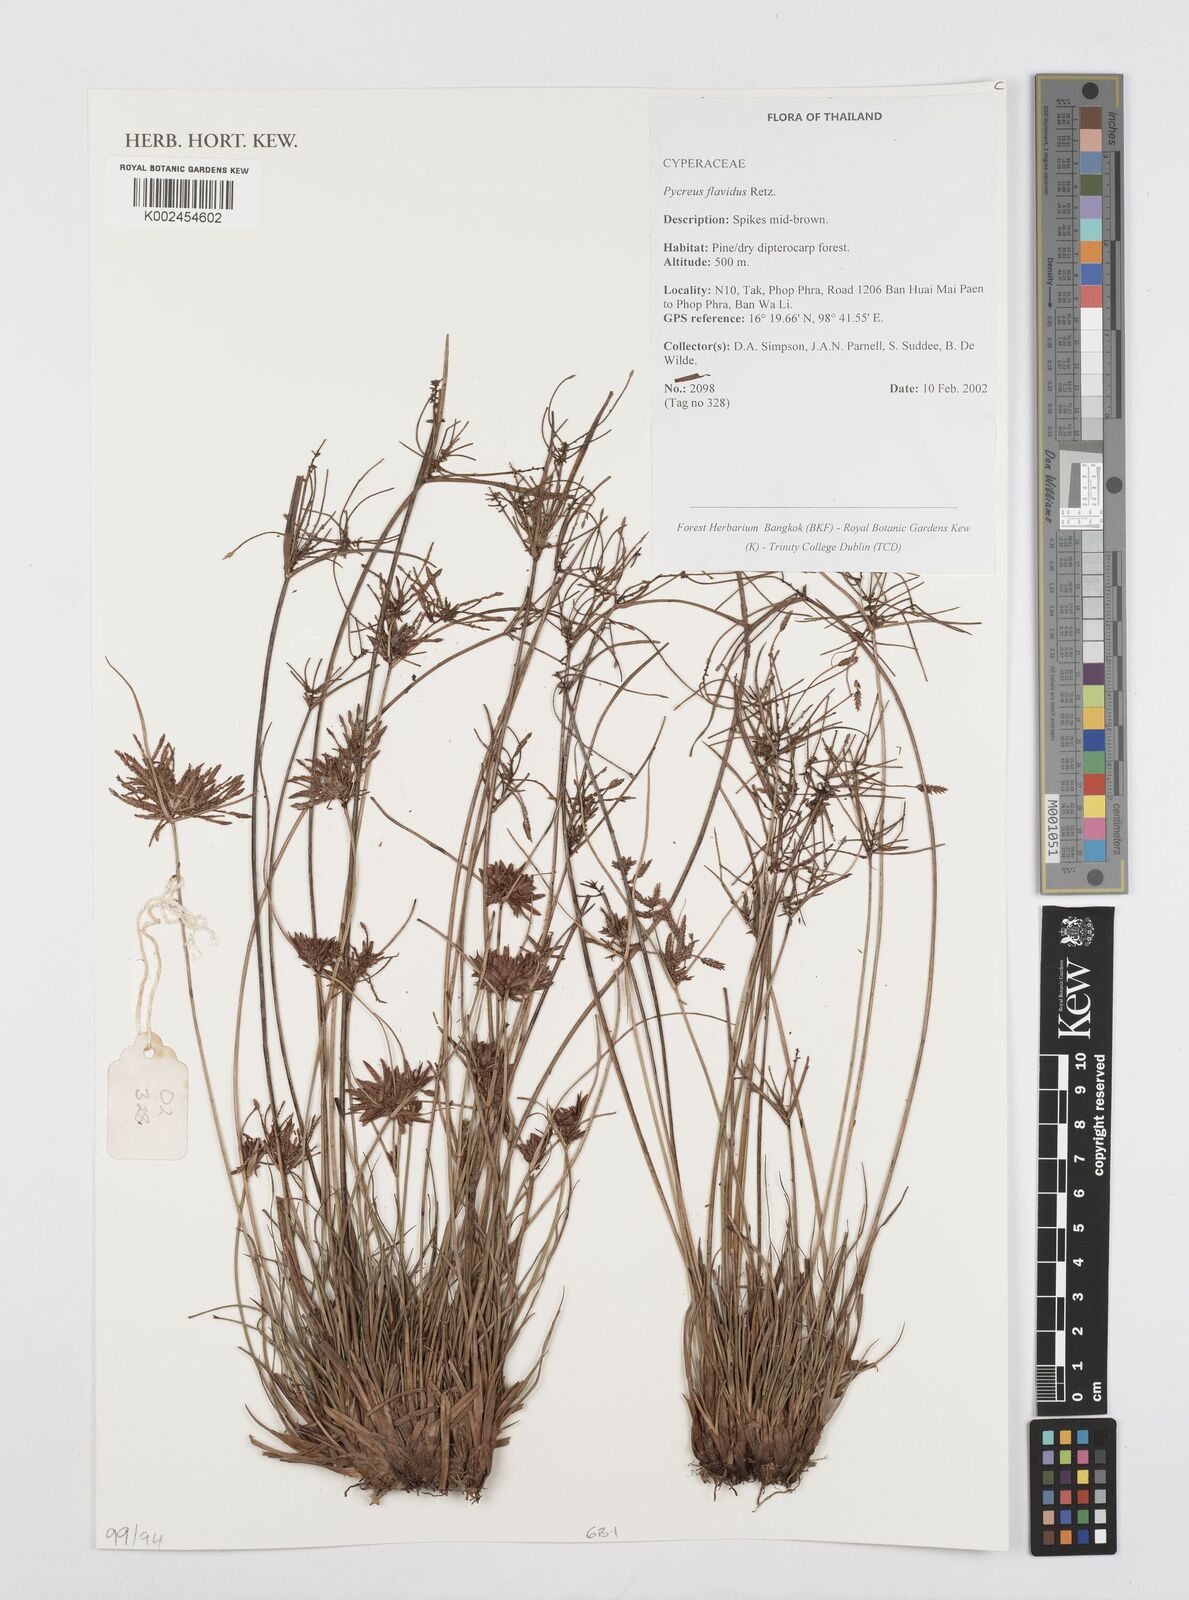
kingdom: Plantae
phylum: Tracheophyta
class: Liliopsida
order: Poales
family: Cyperaceae
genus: Cyperus
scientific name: Cyperus flavidus
